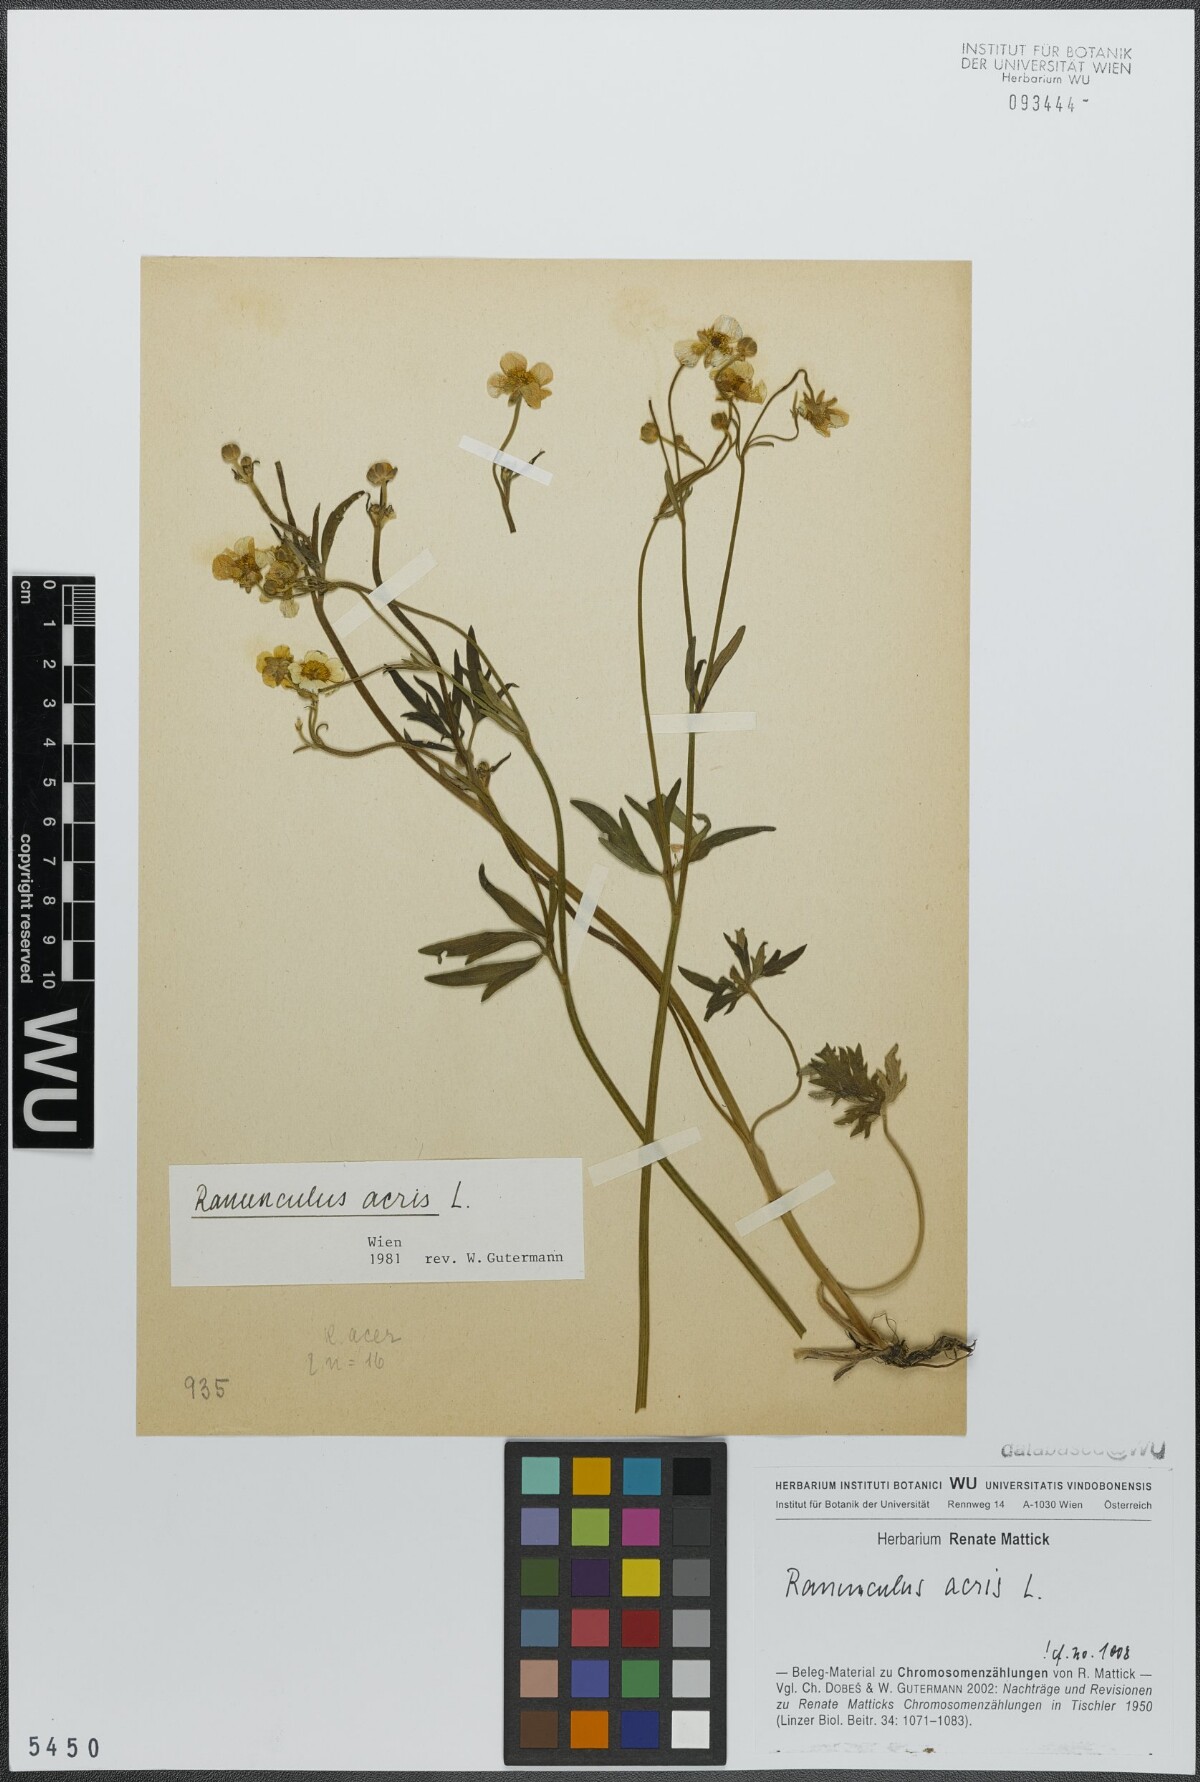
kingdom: Plantae
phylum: Tracheophyta
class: Magnoliopsida
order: Ranunculales
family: Ranunculaceae
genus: Ranunculus
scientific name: Ranunculus acris
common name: Meadow buttercup
